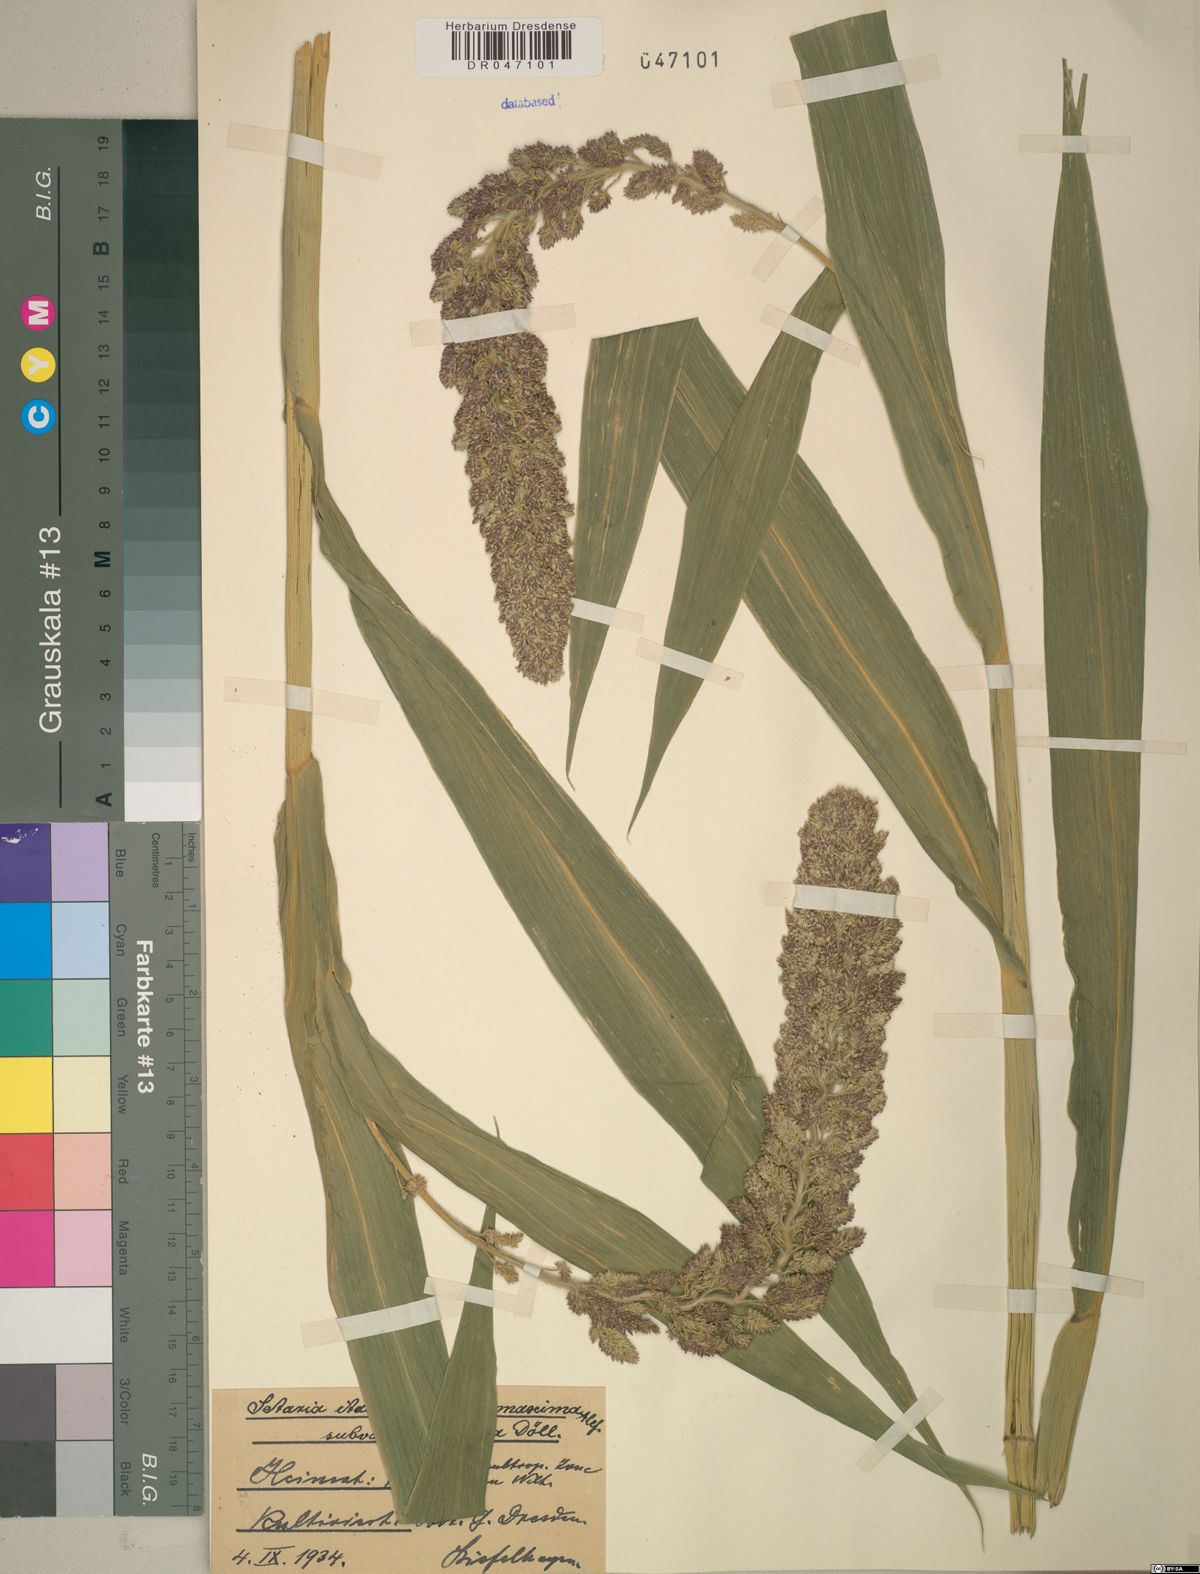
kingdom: Plantae
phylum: Tracheophyta
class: Liliopsida
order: Poales
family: Poaceae
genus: Setaria
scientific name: Setaria italica
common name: Foxtail bristle-grass
